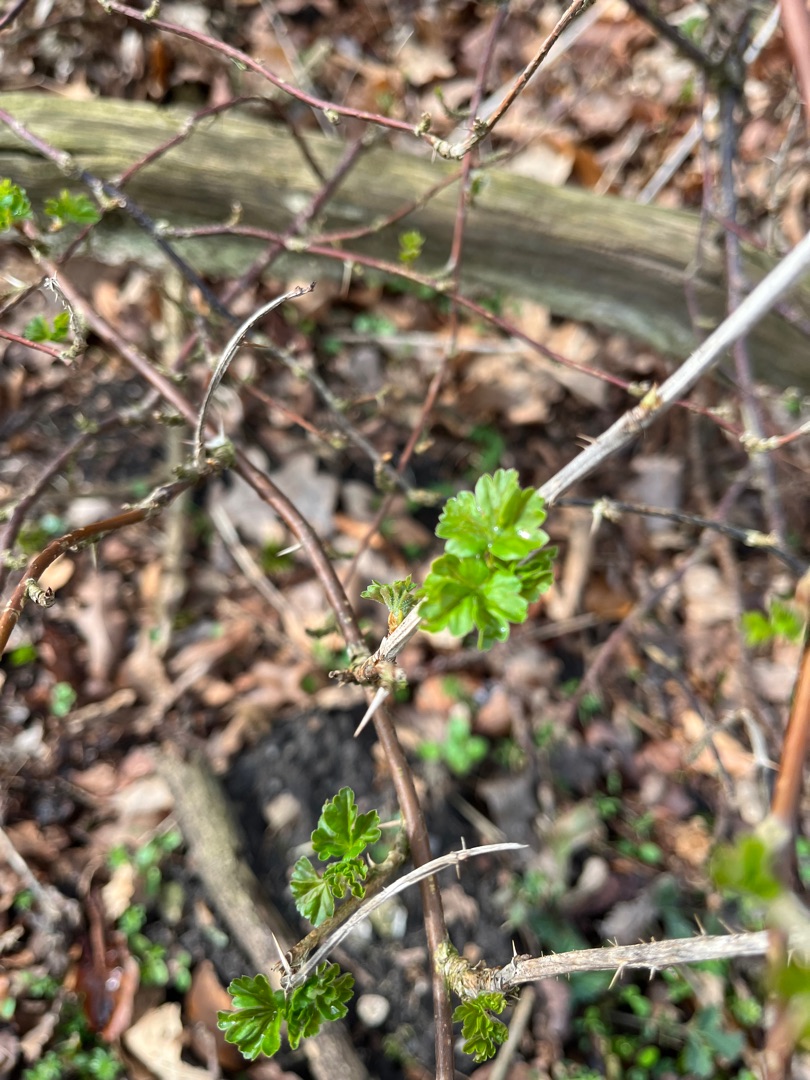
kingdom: Plantae
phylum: Tracheophyta
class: Magnoliopsida
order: Saxifragales
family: Grossulariaceae
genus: Ribes
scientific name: Ribes uva-crispa
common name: Stikkelsbær
